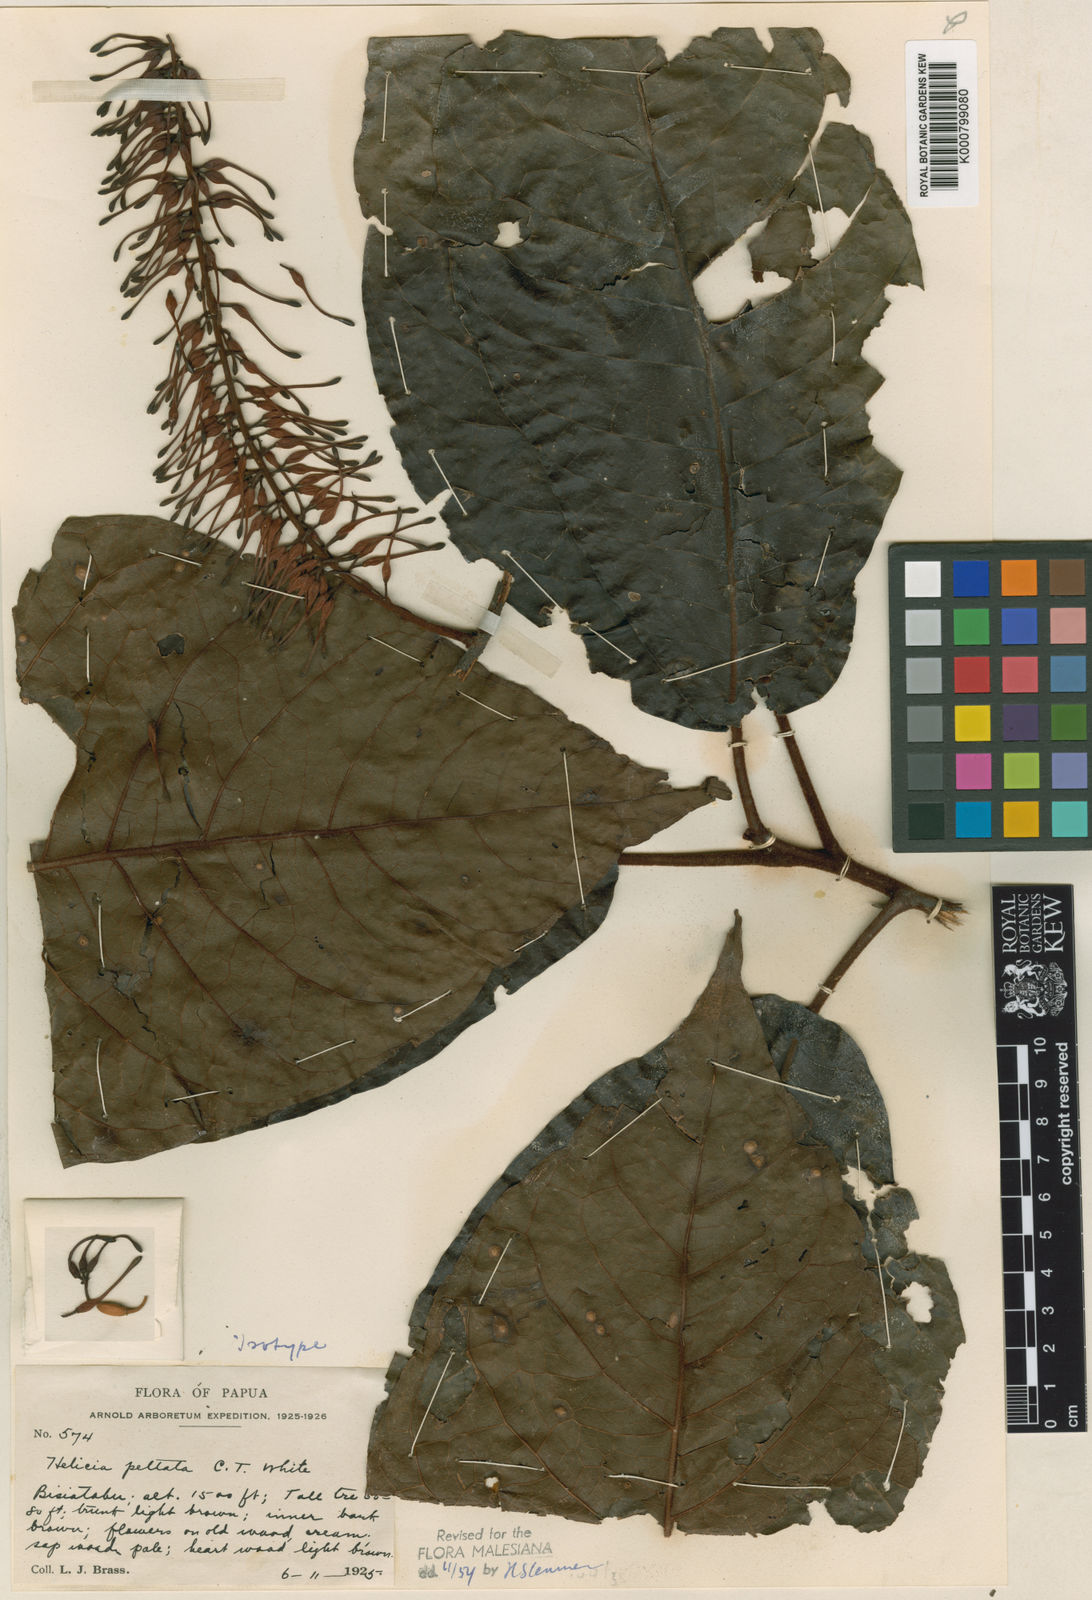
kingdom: Plantae
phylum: Tracheophyta
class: Magnoliopsida
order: Proteales
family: Proteaceae
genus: Helicia
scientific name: Helicia peltata
